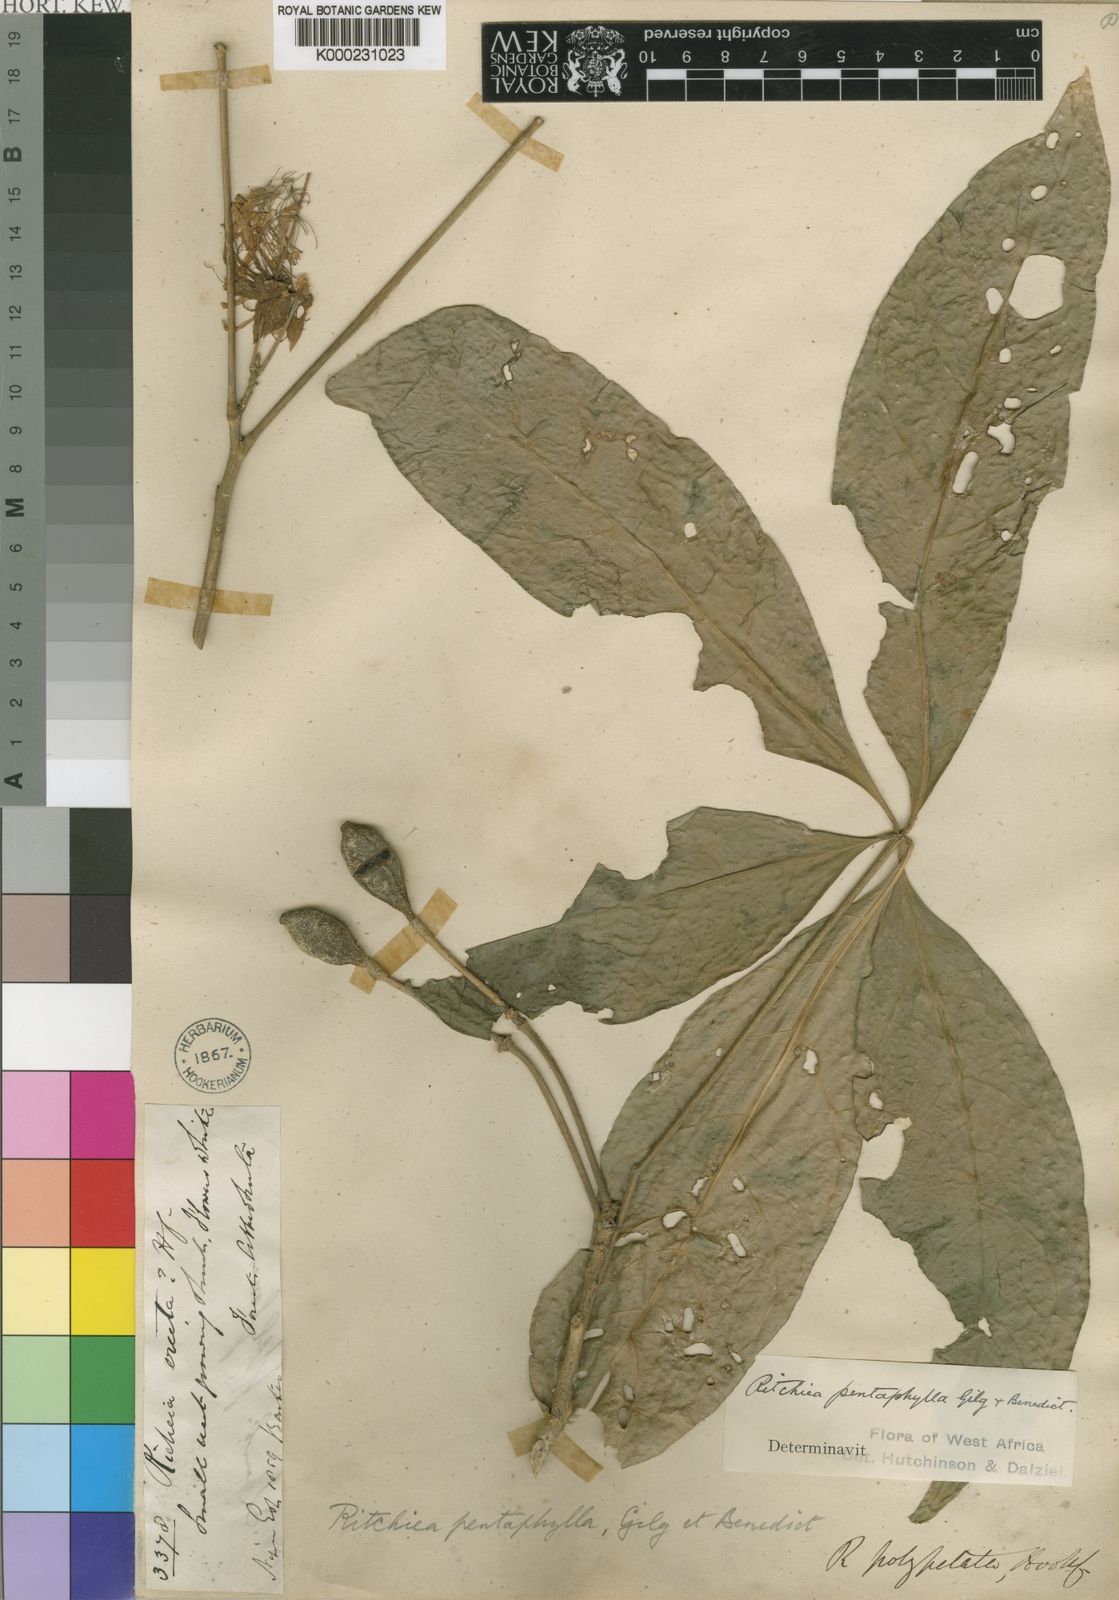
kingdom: Plantae
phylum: Tracheophyta
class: Magnoliopsida
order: Brassicales
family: Capparaceae
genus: Ritchiea
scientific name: Ritchiea erecta
